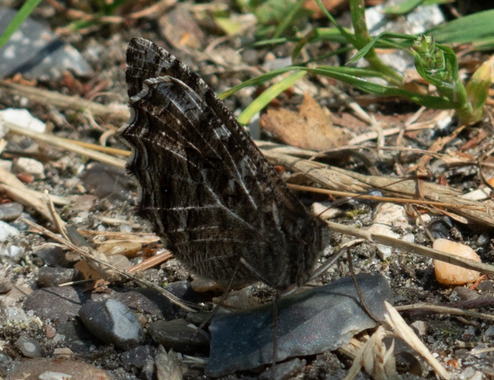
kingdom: Animalia
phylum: Arthropoda
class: Insecta
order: Lepidoptera
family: Nymphalidae
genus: Hipparchia
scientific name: Hipparchia semele
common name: Sandrandøje
